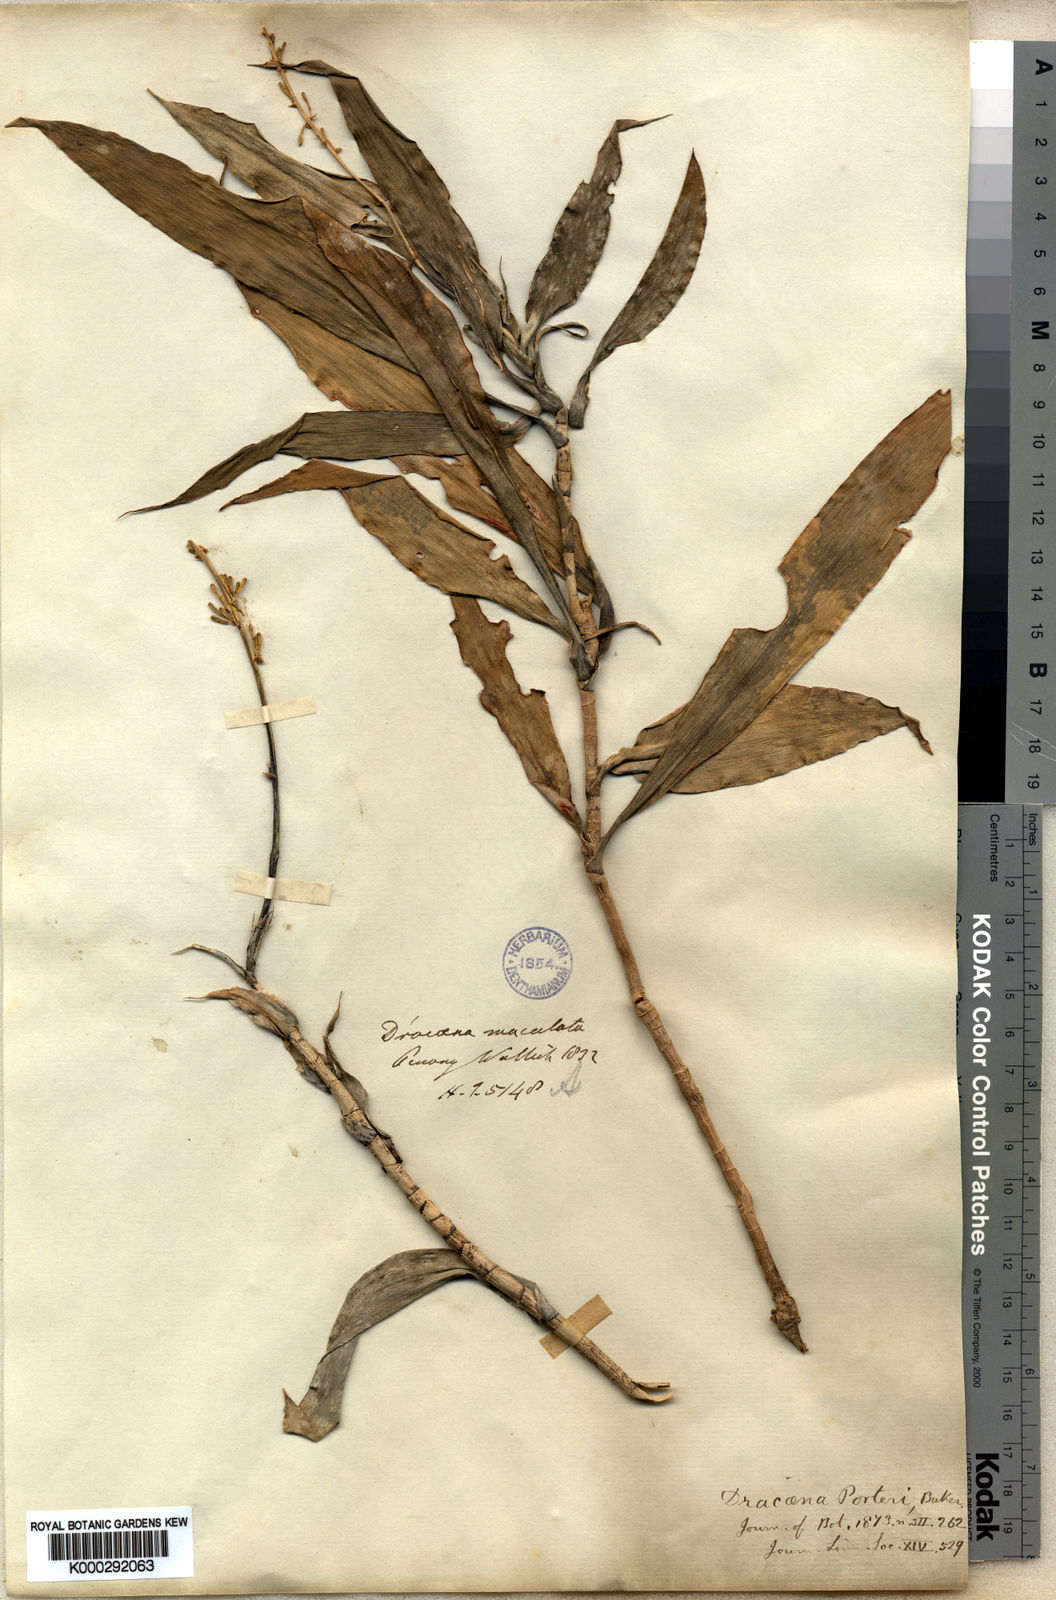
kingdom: Plantae
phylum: Tracheophyta
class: Liliopsida
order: Asparagales
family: Asparagaceae
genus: Dracaena
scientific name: Dracaena porteri
